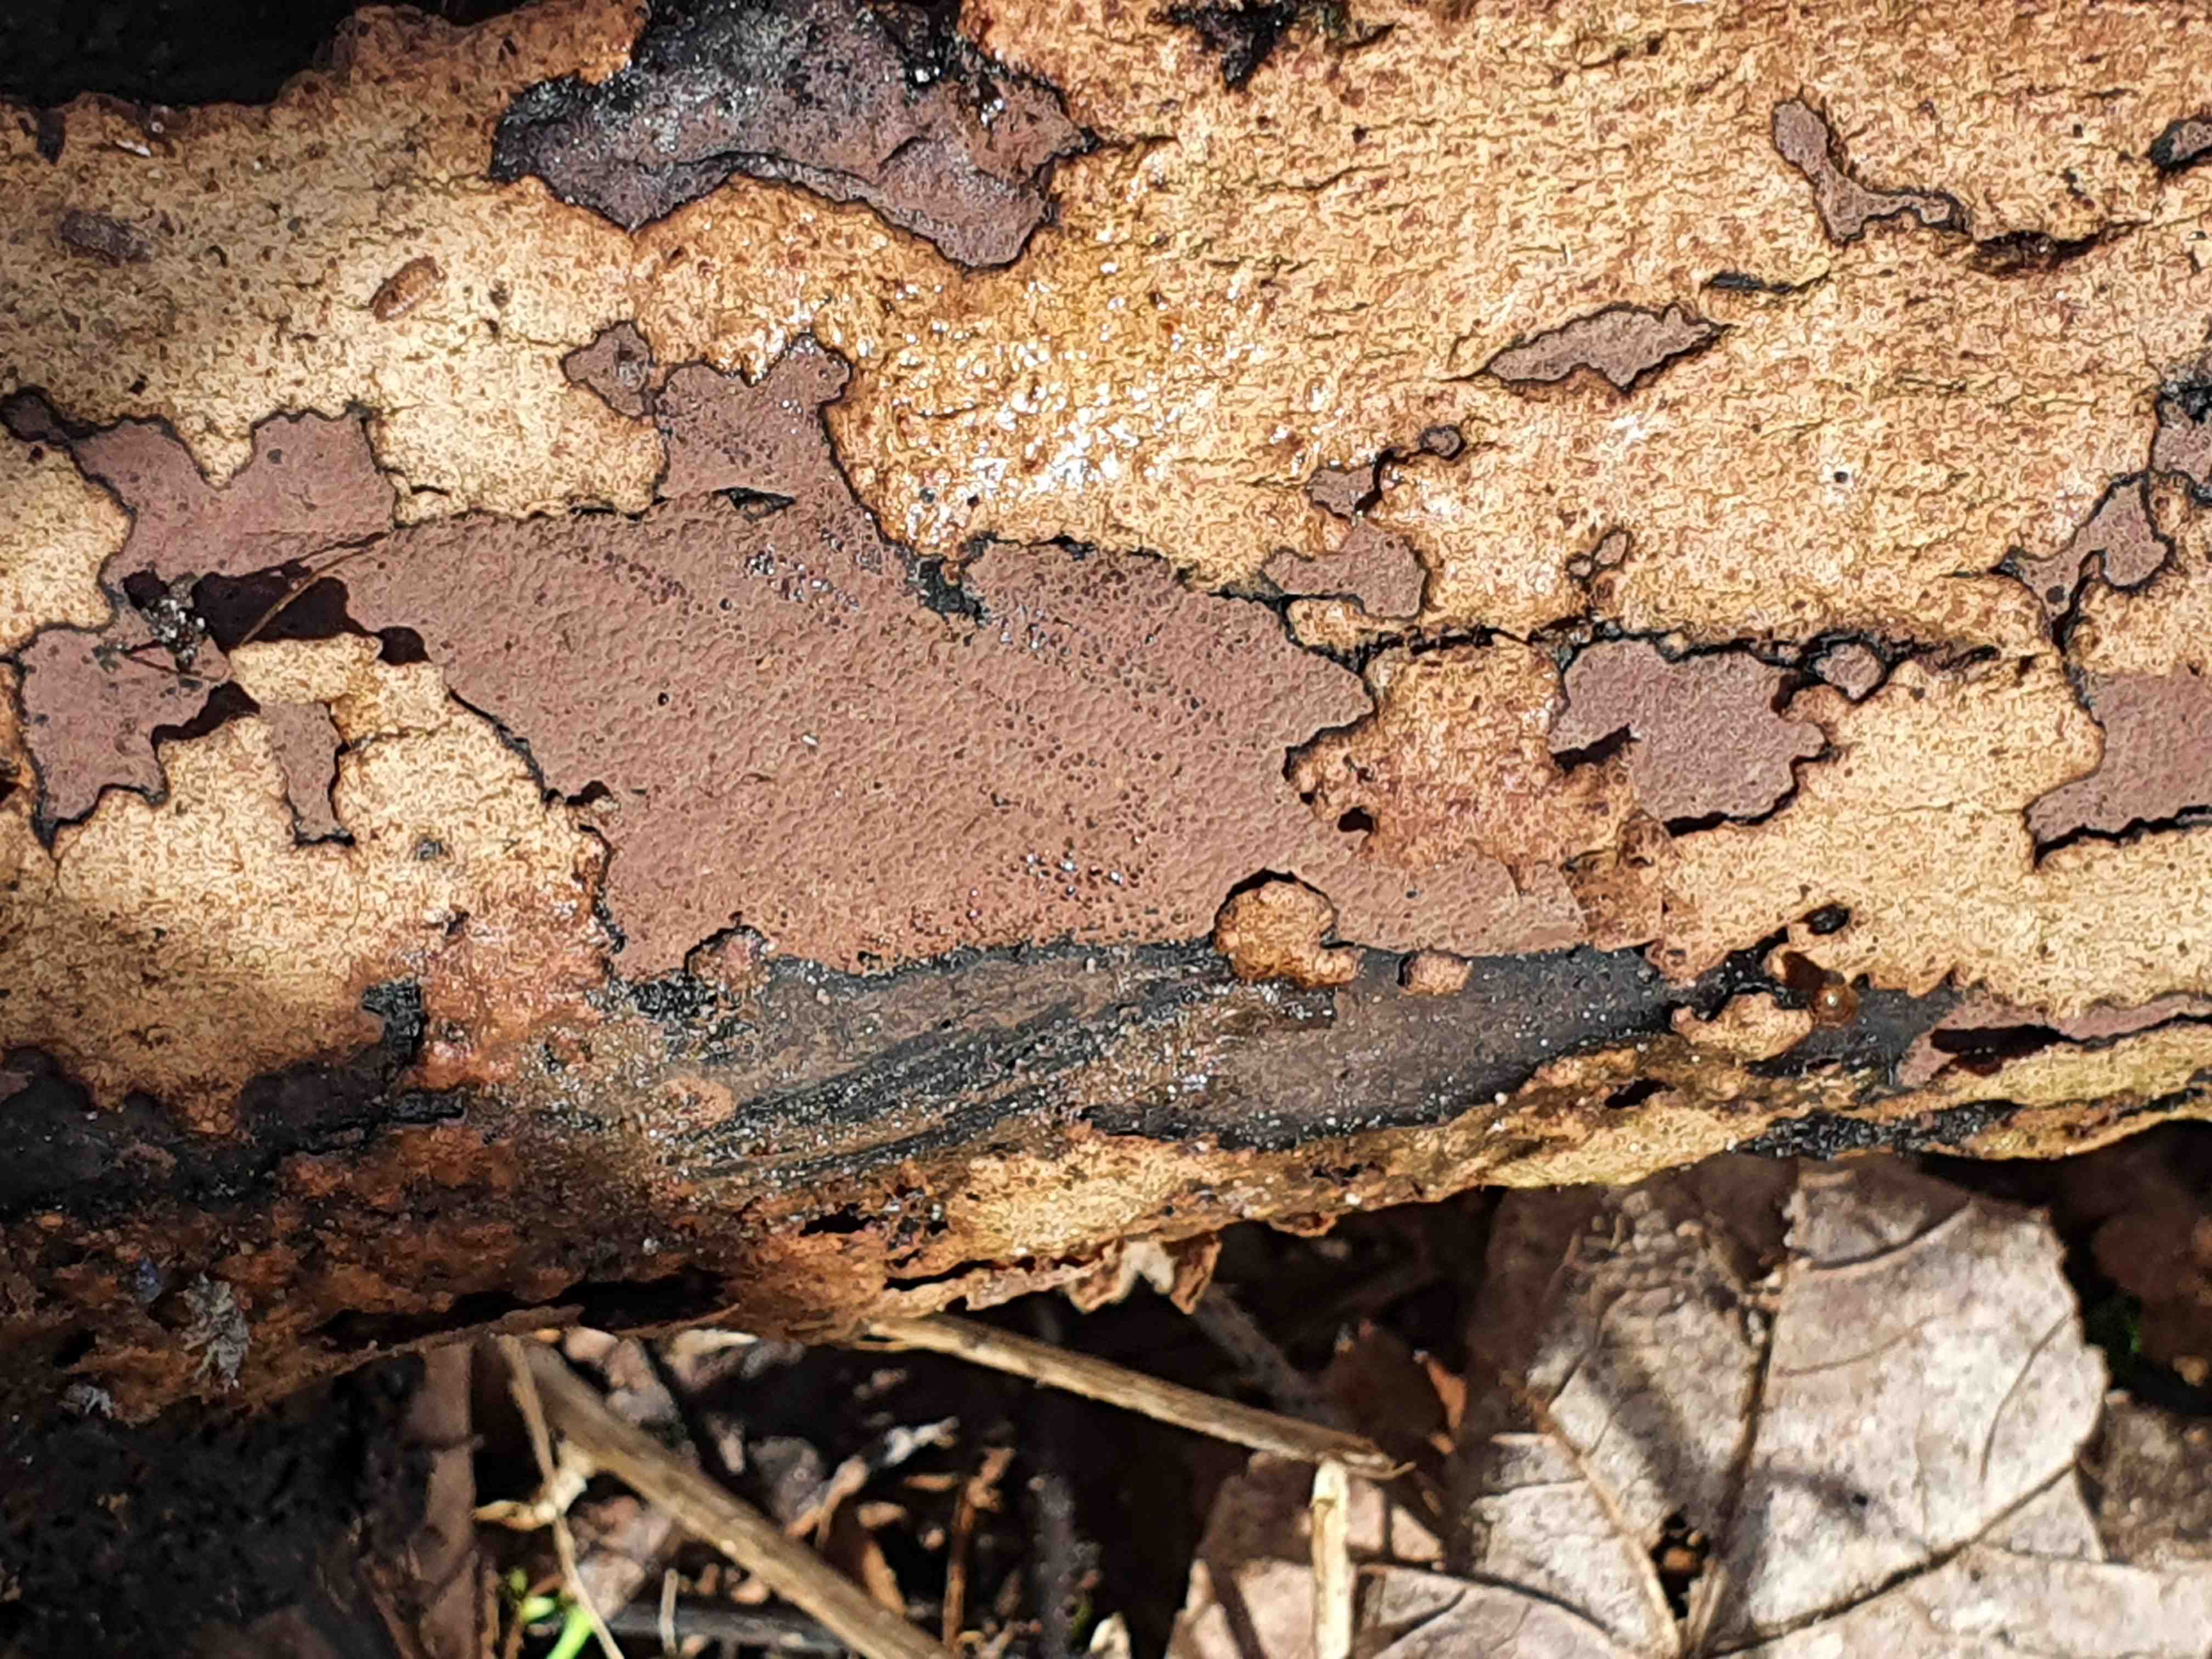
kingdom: Fungi
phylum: Ascomycota
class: Sordariomycetes
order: Xylariales
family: Hypoxylaceae
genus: Hypoxylon
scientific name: Hypoxylon petriniae
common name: nedsænket kulbær
